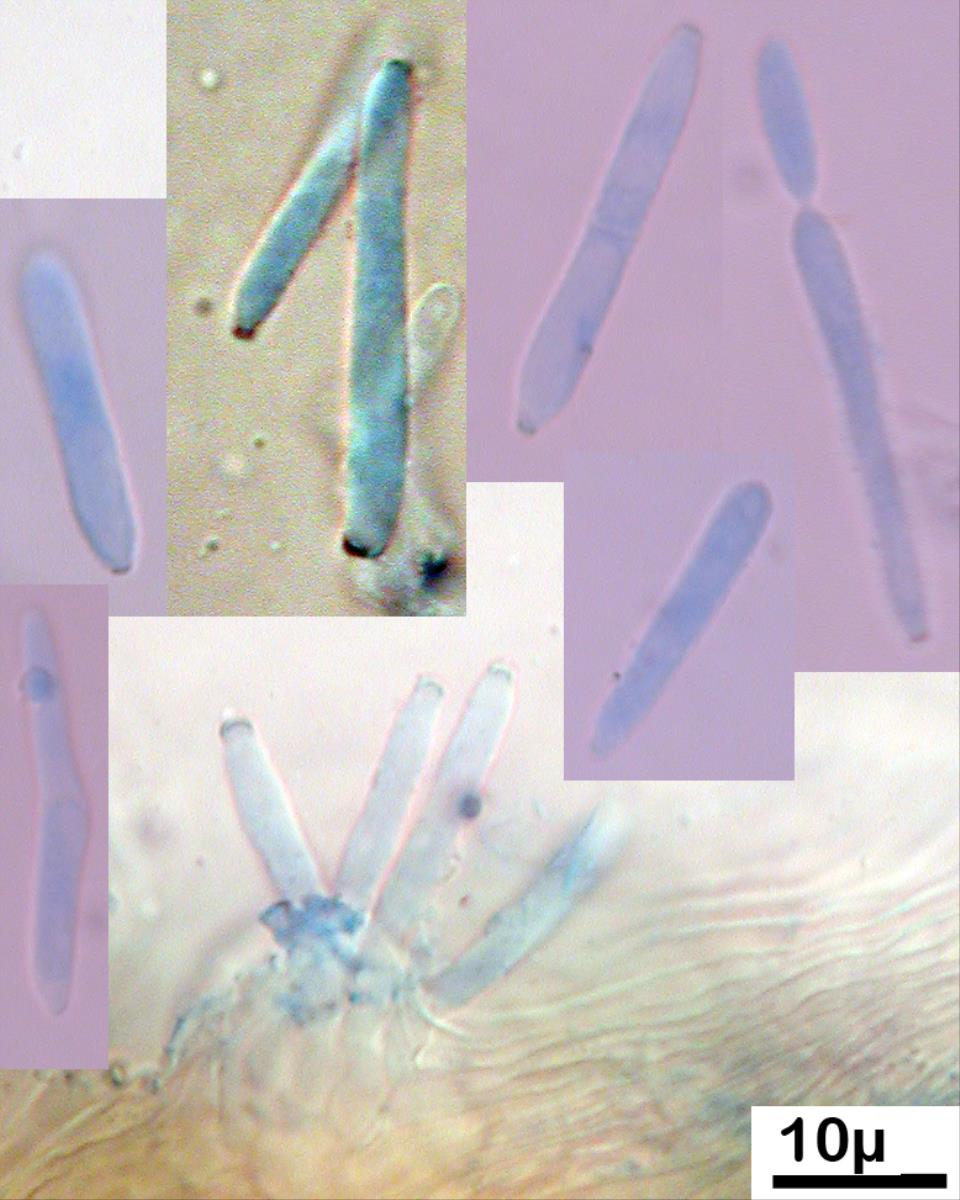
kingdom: Fungi
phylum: Ascomycota
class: Dothideomycetes
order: Capnodiales
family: Mycosphaerellaceae
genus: Ramularia
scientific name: Ramularia
